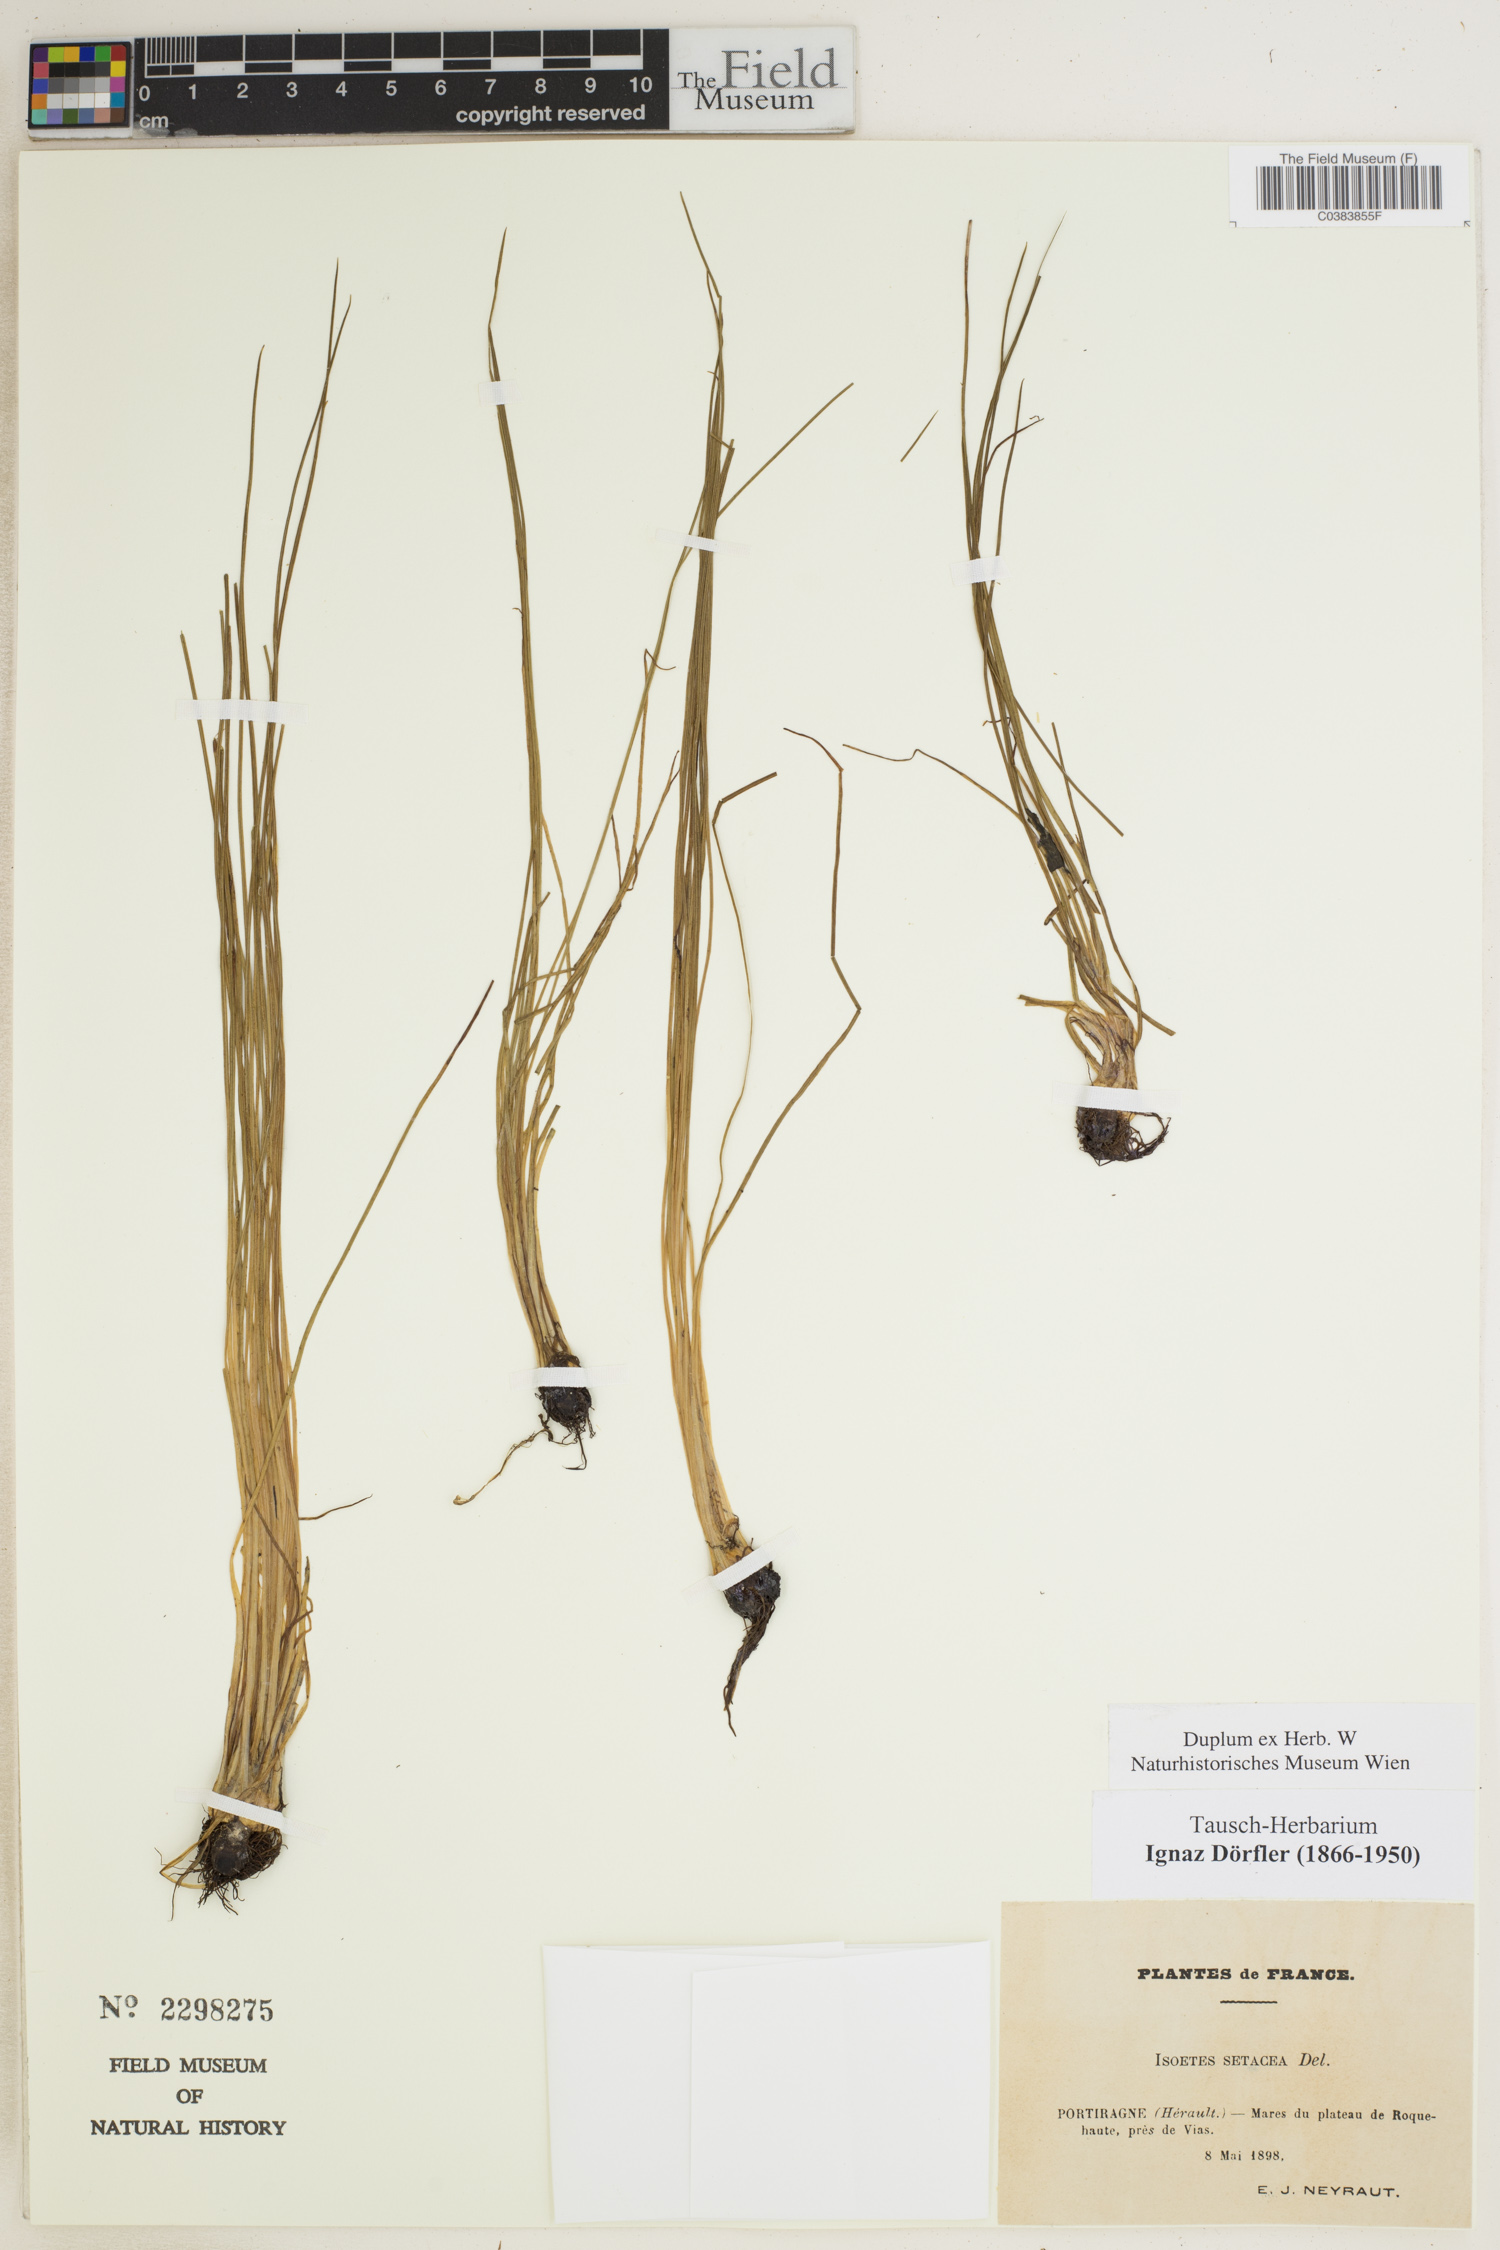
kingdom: Plantae
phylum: Tracheophyta
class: Lycopodiopsida
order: Isoetales
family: Isoetaceae
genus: Isoetes
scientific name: Isoetes lacustris
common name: Common quillwort
